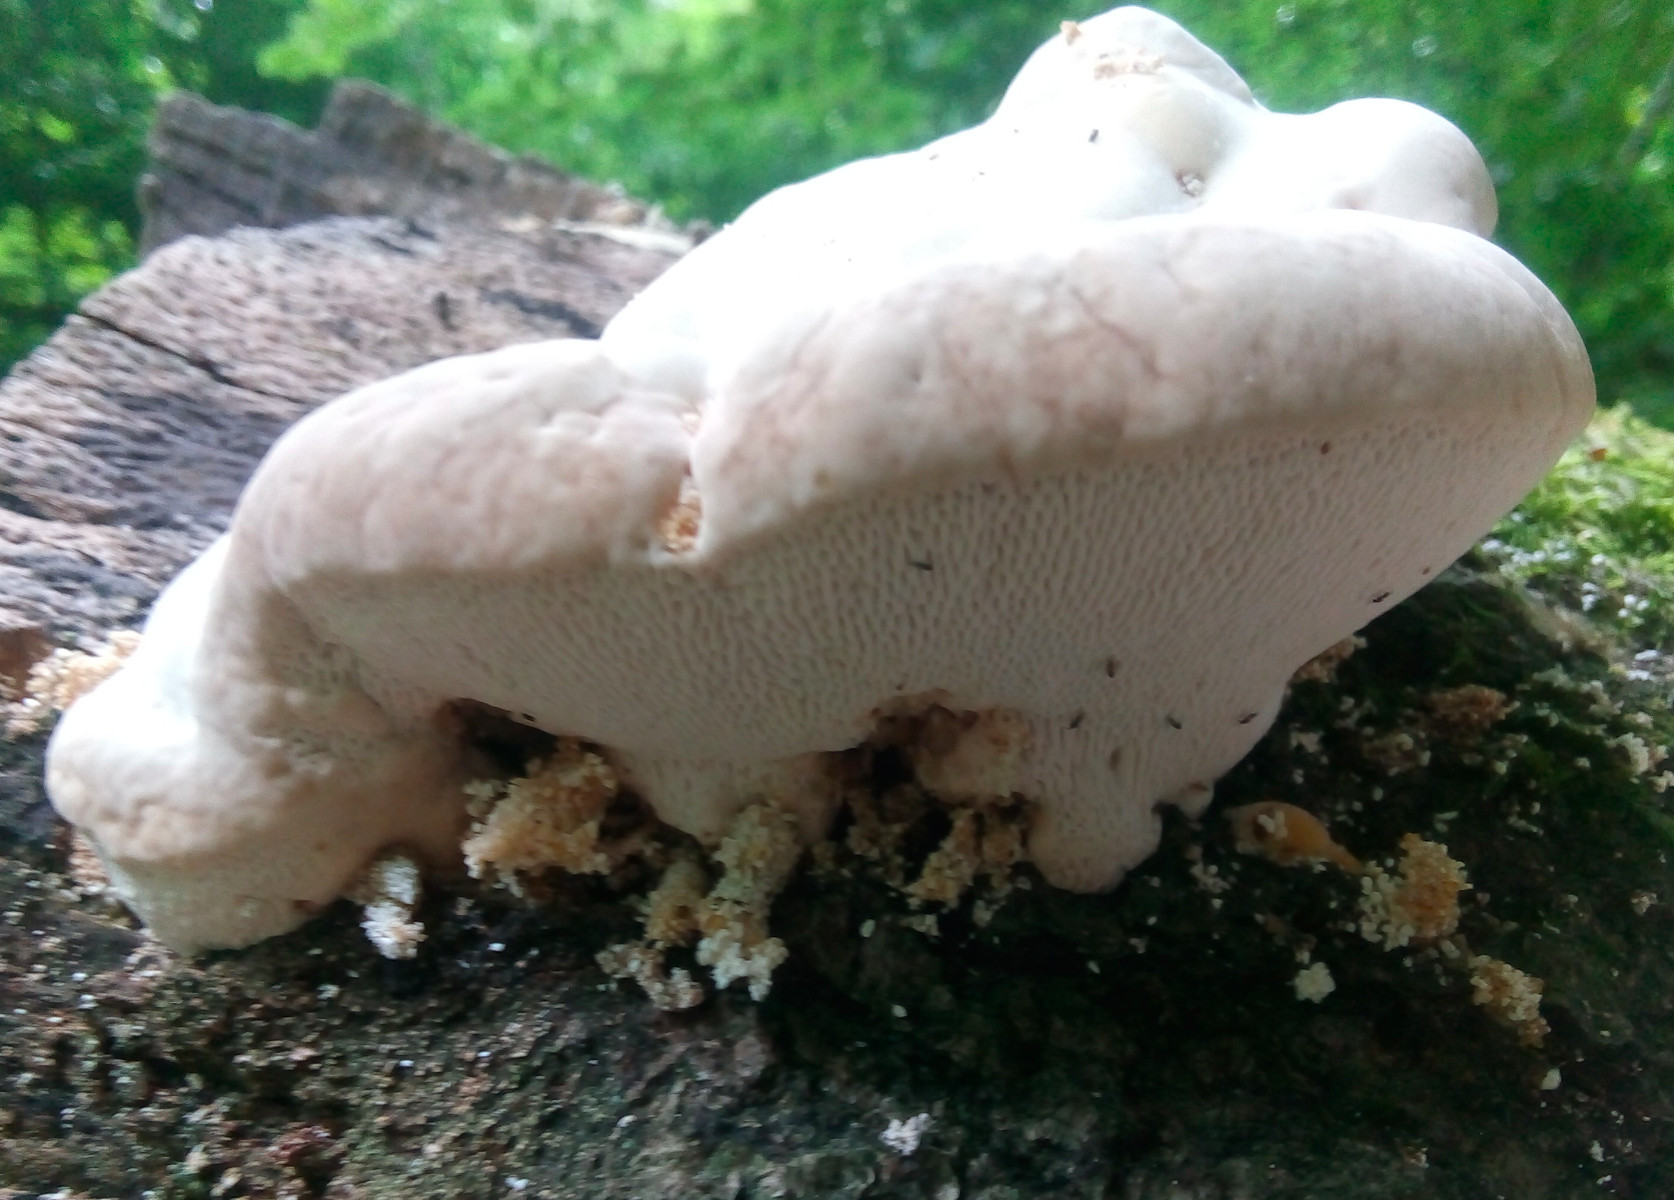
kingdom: Fungi
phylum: Basidiomycota
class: Agaricomycetes
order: Polyporales
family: Polyporaceae
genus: Trametes
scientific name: Trametes gibbosa
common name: puklet læderporesvamp
